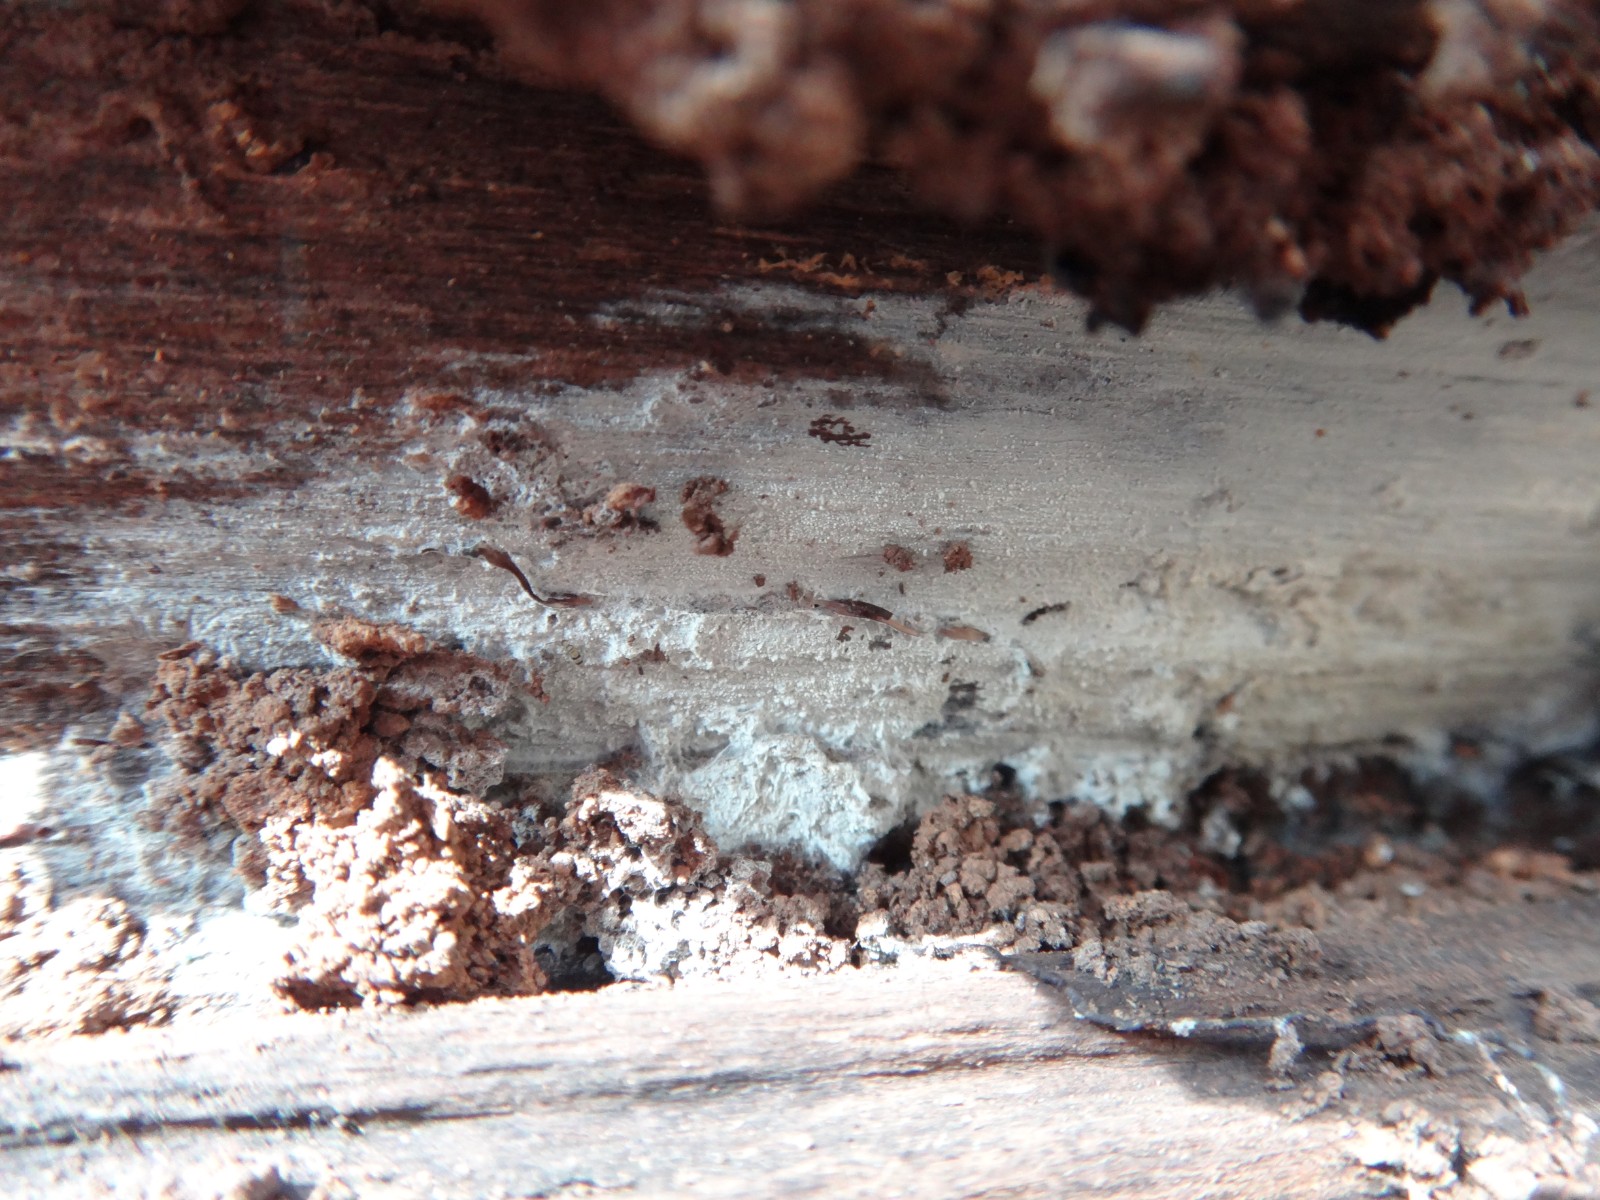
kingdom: Fungi
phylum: Basidiomycota
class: Agaricomycetes
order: Cantharellales
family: Hydnaceae
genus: Sistotrema
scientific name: Sistotrema brinkmannii
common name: bønnesporet kroneskorpe
